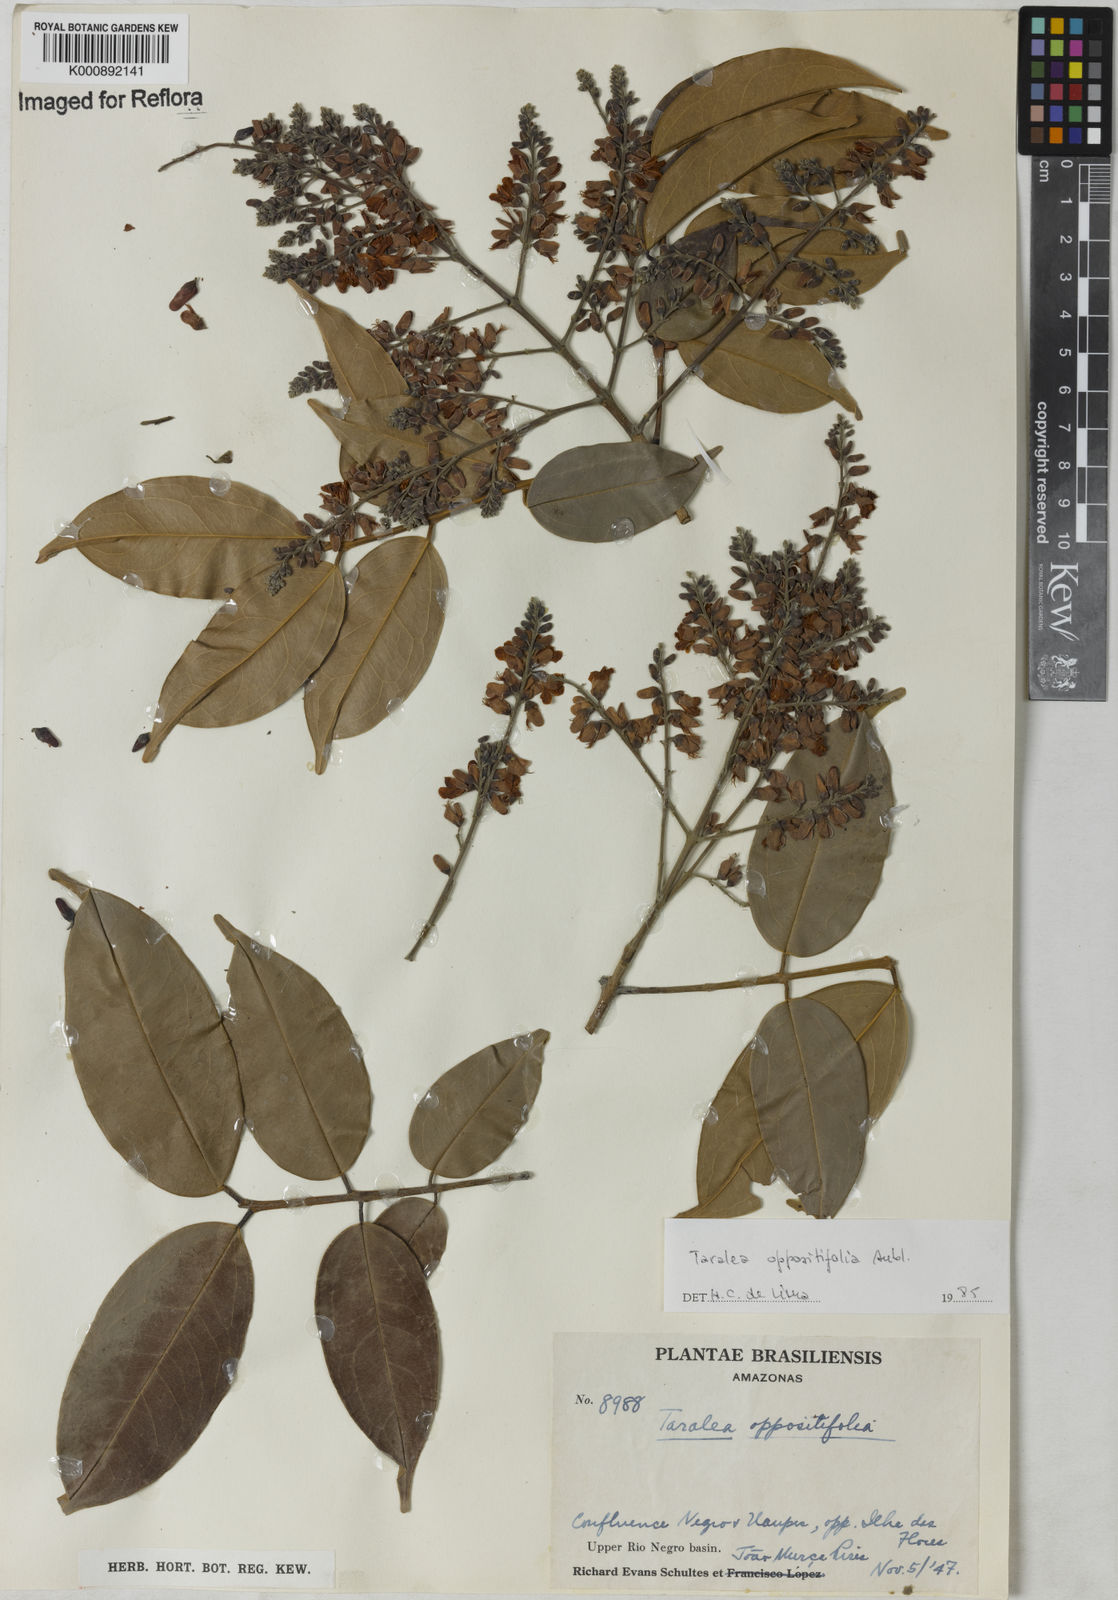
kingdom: Plantae
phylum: Tracheophyta
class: Magnoliopsida
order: Fabales
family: Fabaceae
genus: Taralea
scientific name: Taralea oppositifolia
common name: Tonka
